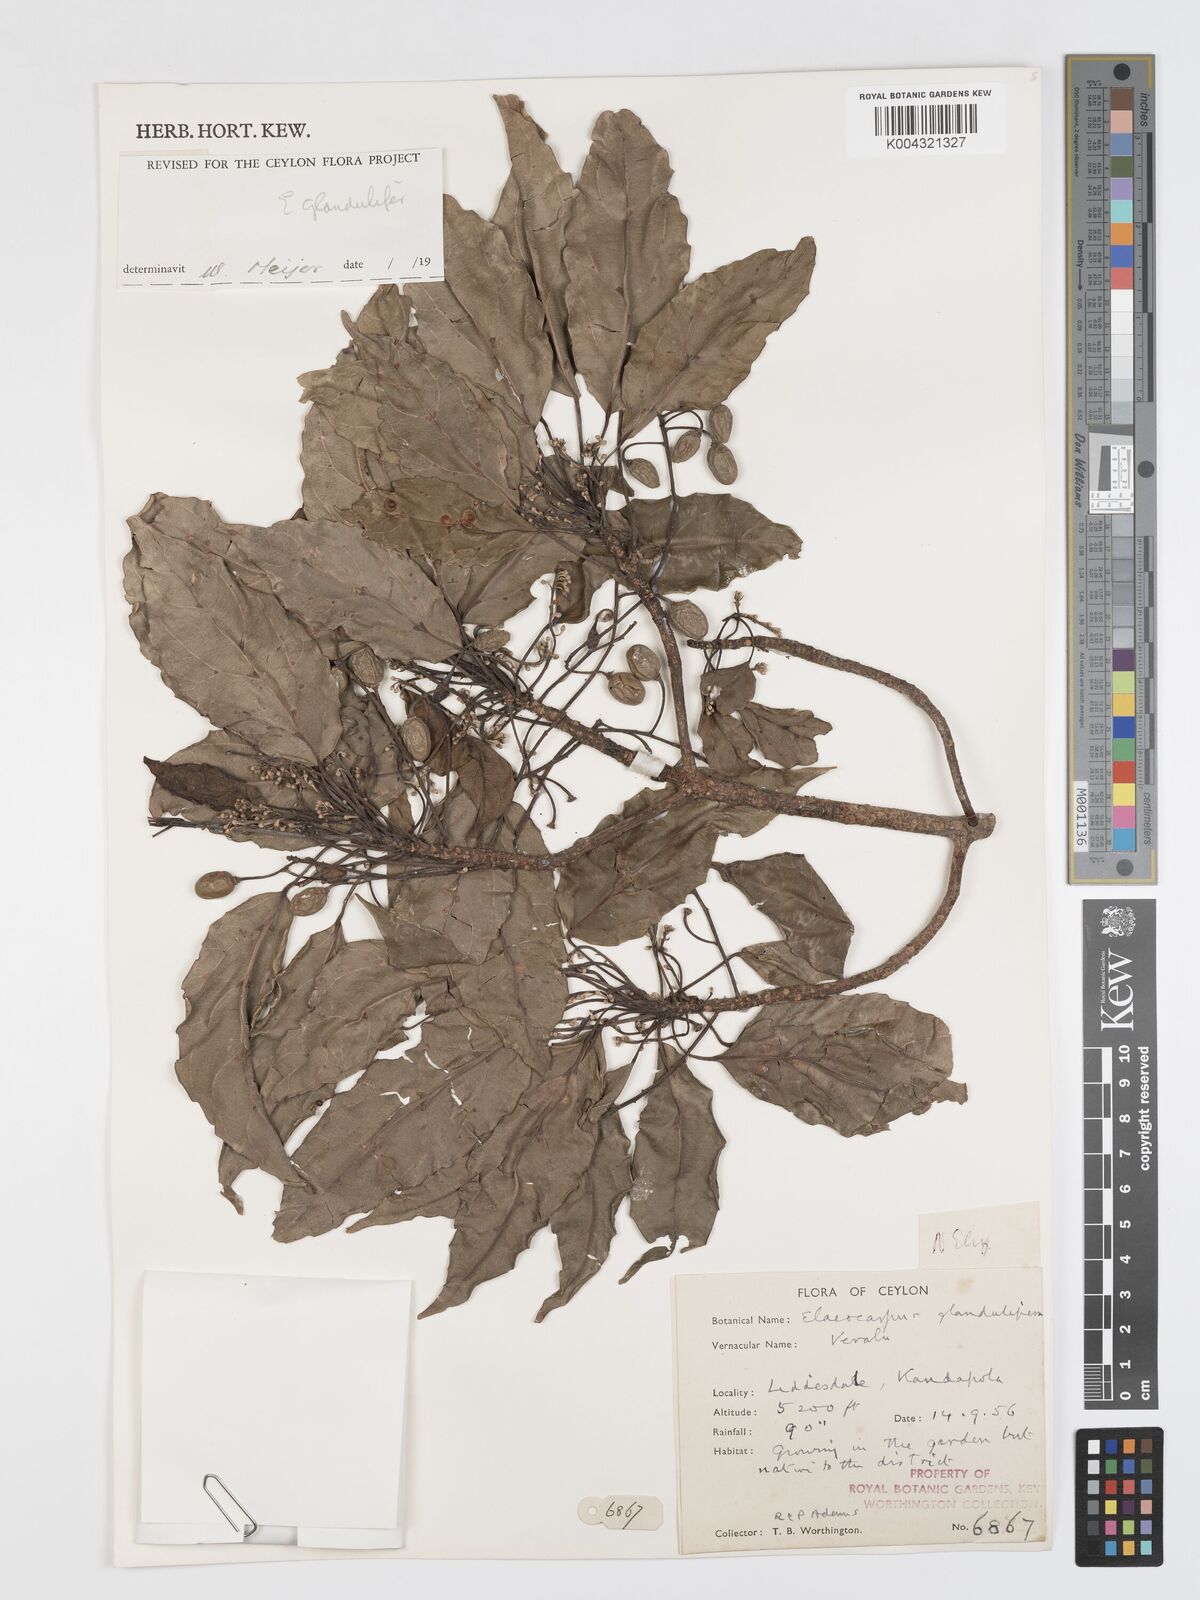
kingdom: Plantae
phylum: Tracheophyta
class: Magnoliopsida
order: Oxalidales
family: Elaeocarpaceae
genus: Elaeocarpus
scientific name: Elaeocarpus glandulifer
